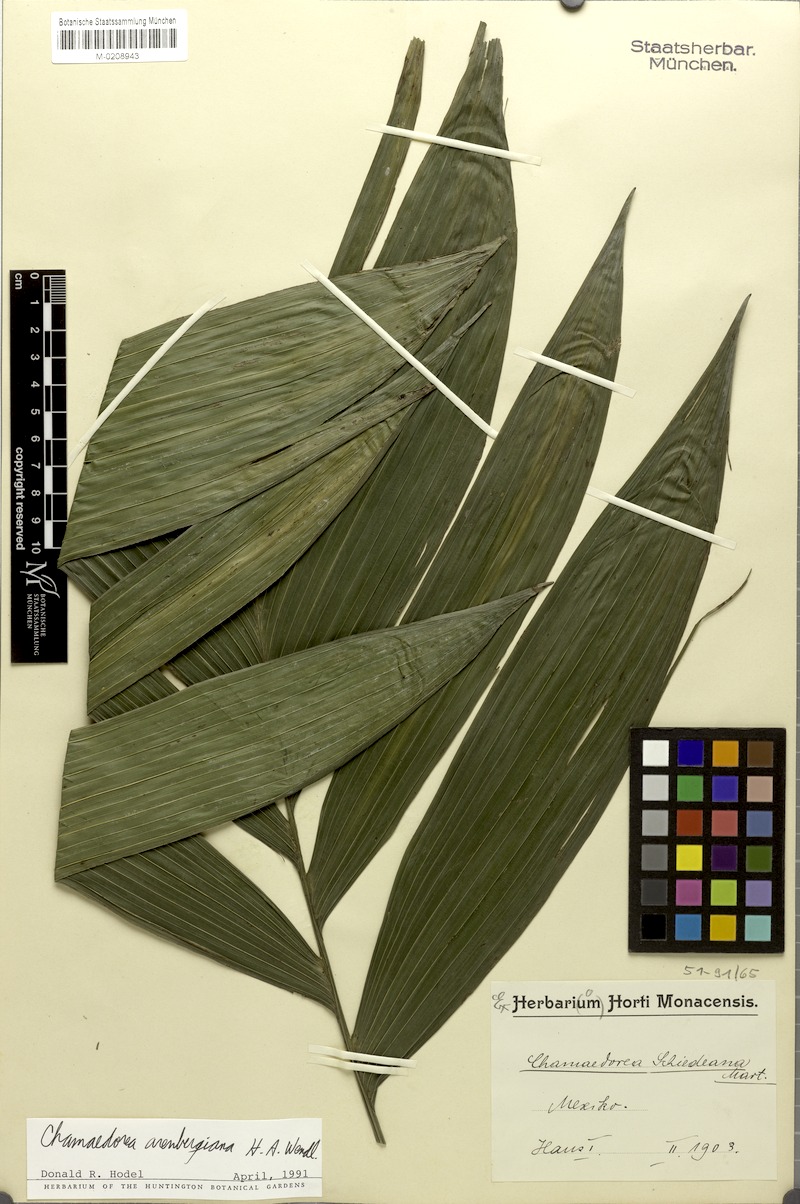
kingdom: Plantae
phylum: Tracheophyta
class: Liliopsida
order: Arecales
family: Arecaceae
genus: Chamaedorea
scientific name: Chamaedorea arenbergiana
